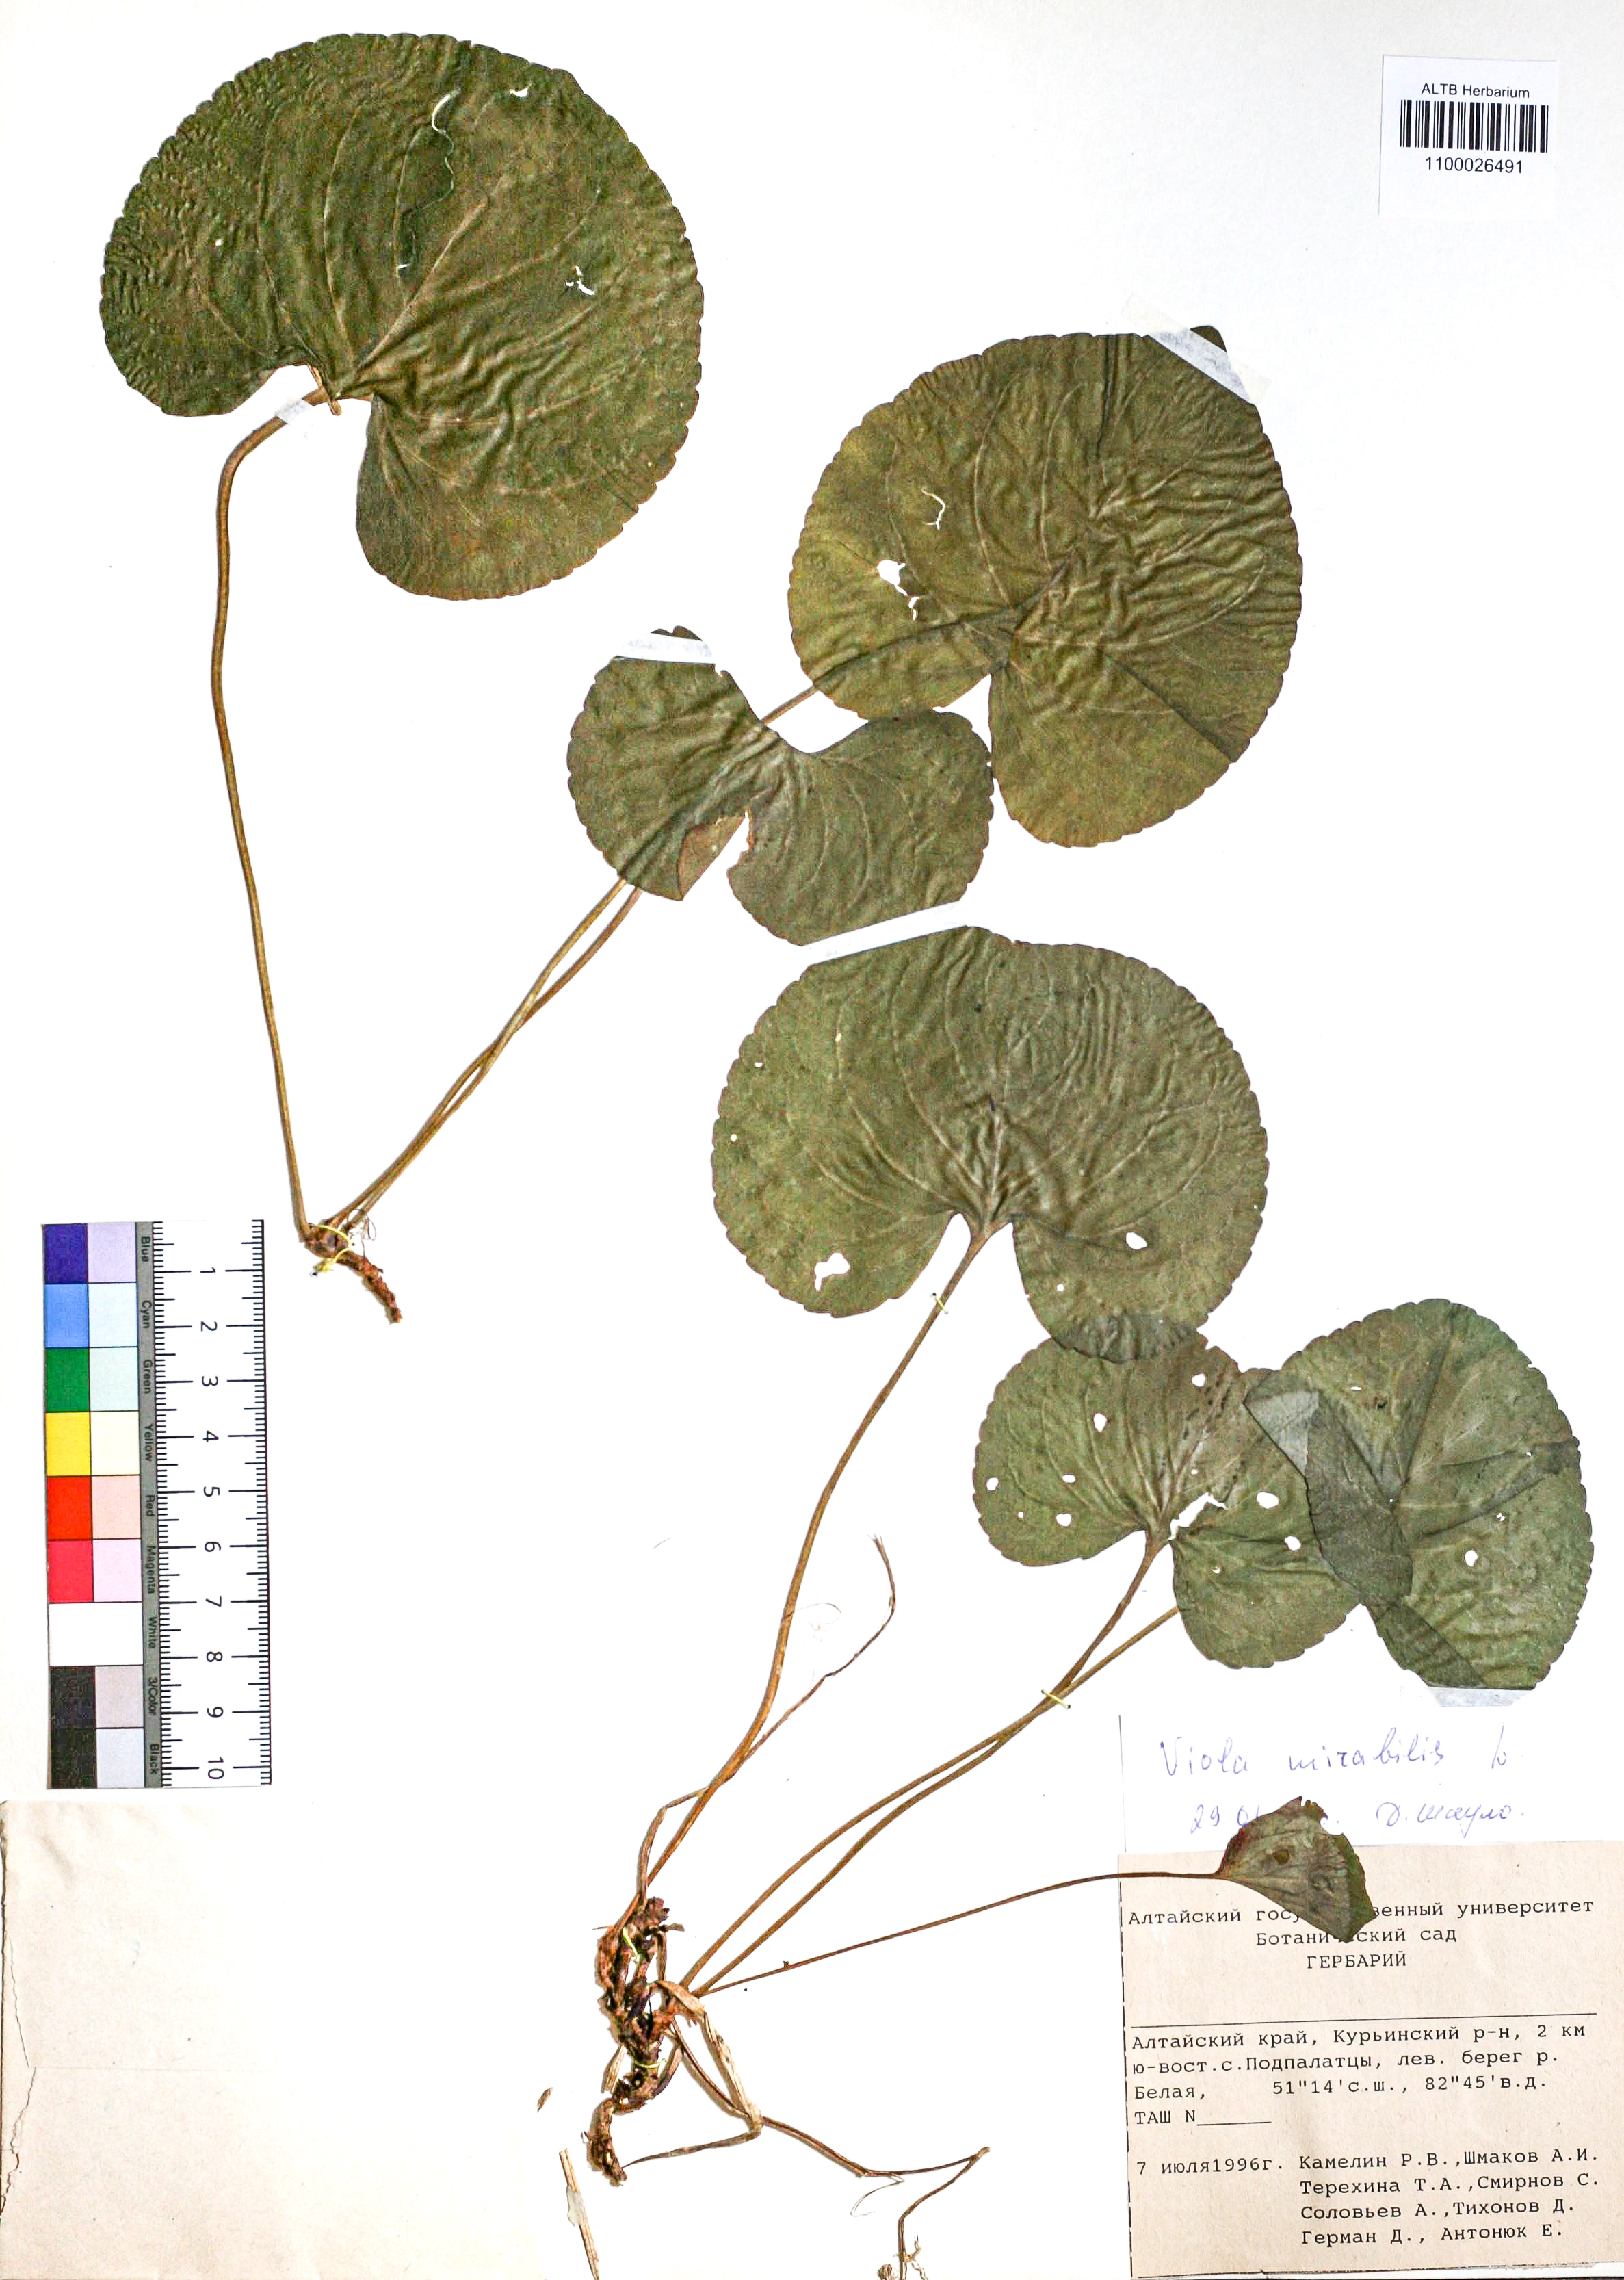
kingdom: Plantae
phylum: Tracheophyta
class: Magnoliopsida
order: Malpighiales
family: Violaceae
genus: Viola
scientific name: Viola mirabilis
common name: Wonder violet
